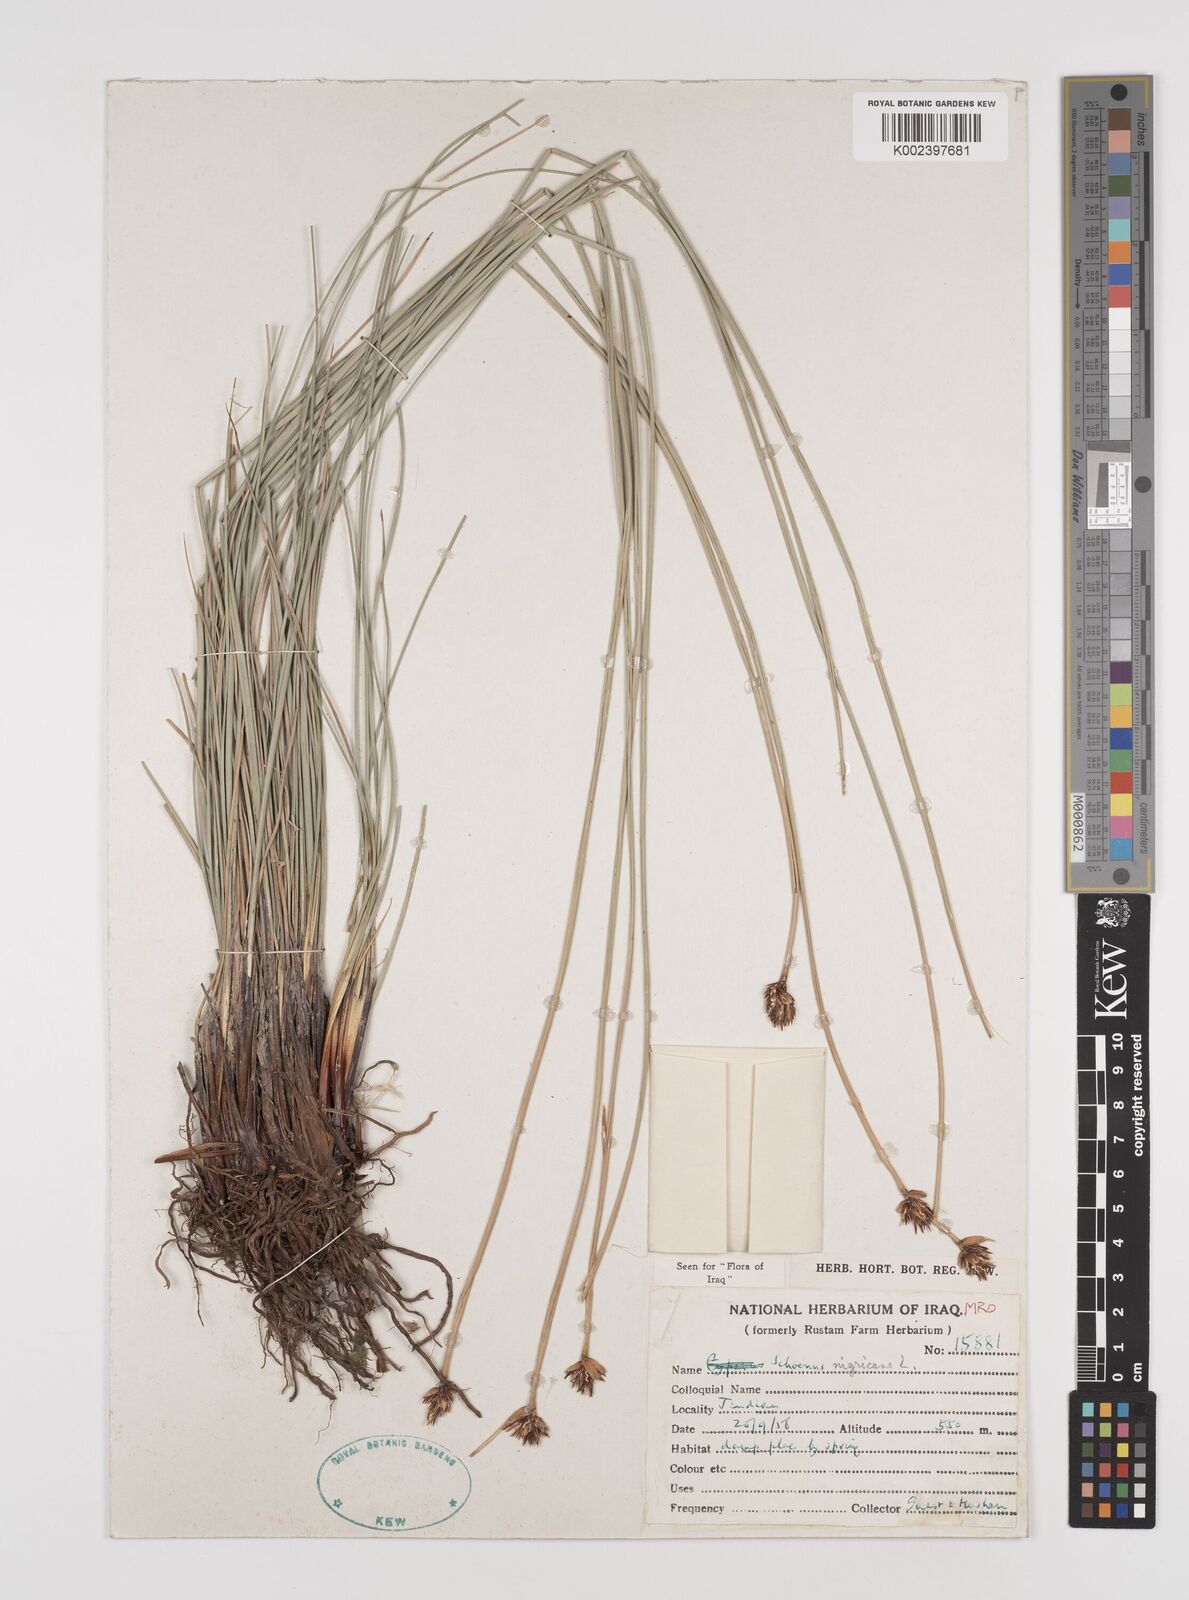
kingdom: Plantae
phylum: Tracheophyta
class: Liliopsida
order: Poales
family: Cyperaceae
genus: Schoenus
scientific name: Schoenus nigricans
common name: Black bog-rush
